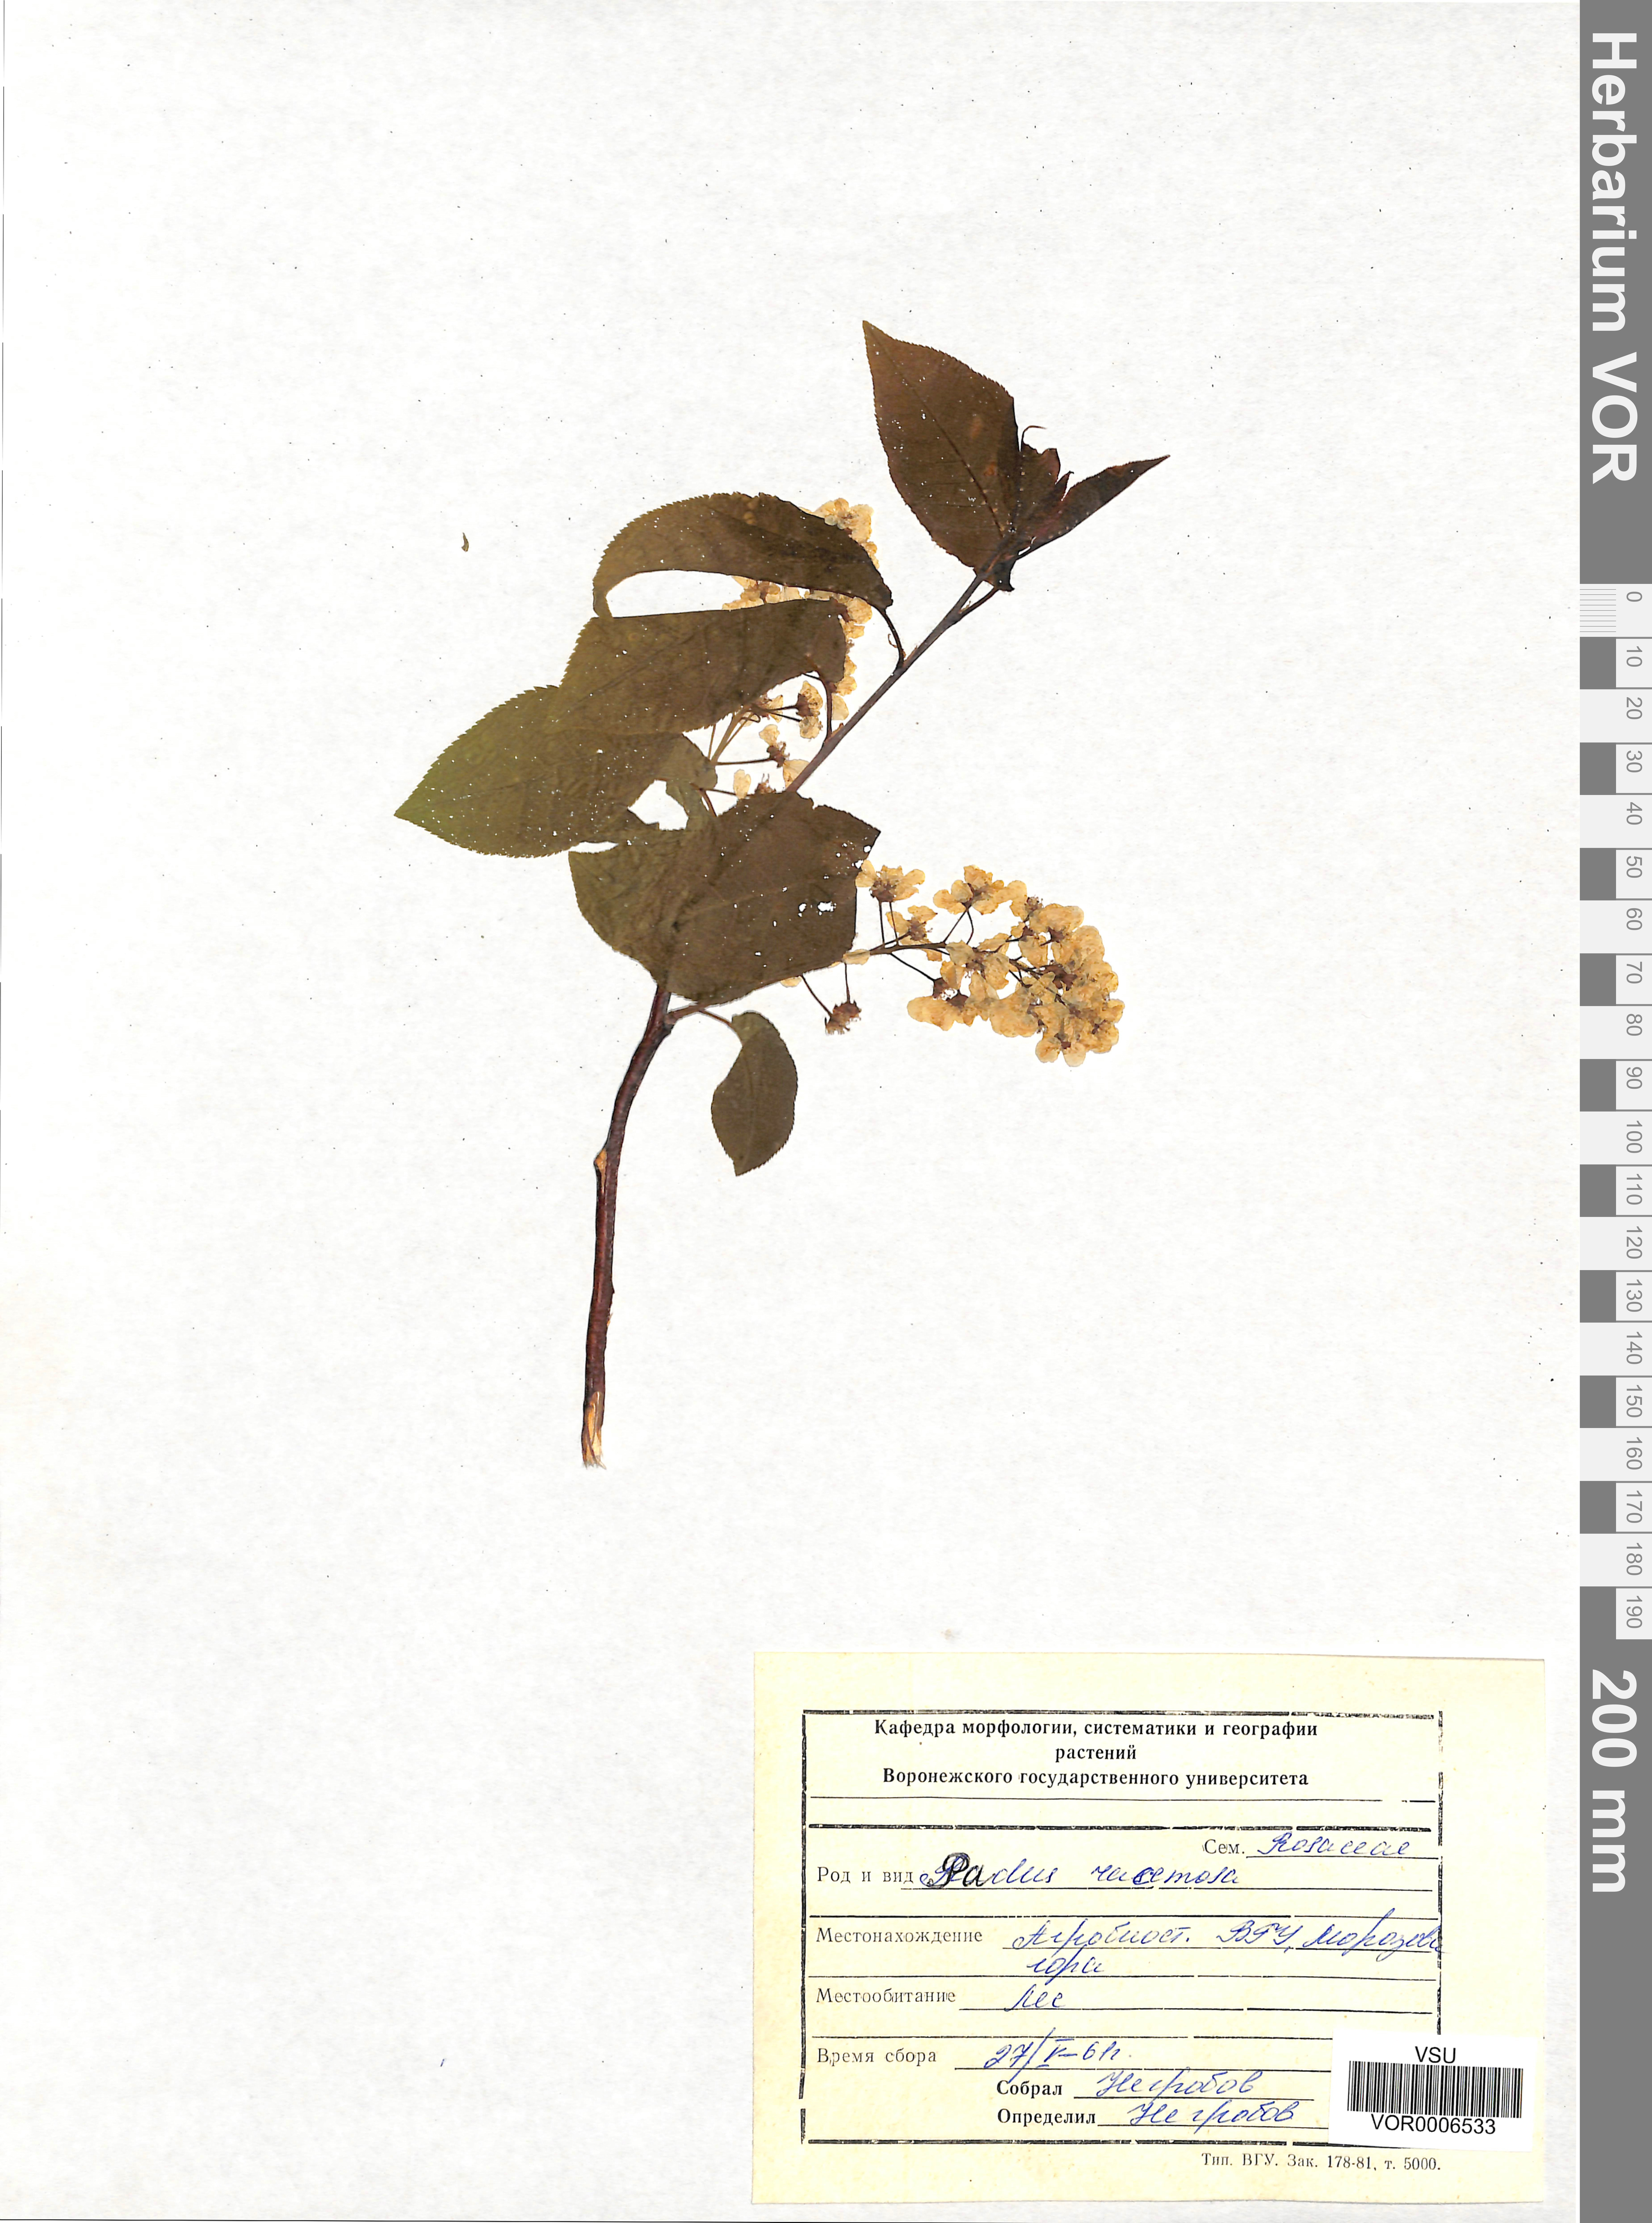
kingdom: Plantae
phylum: Tracheophyta
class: Magnoliopsida
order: Rosales
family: Rosaceae
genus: Prunus
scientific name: Prunus padus
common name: Bird cherry
